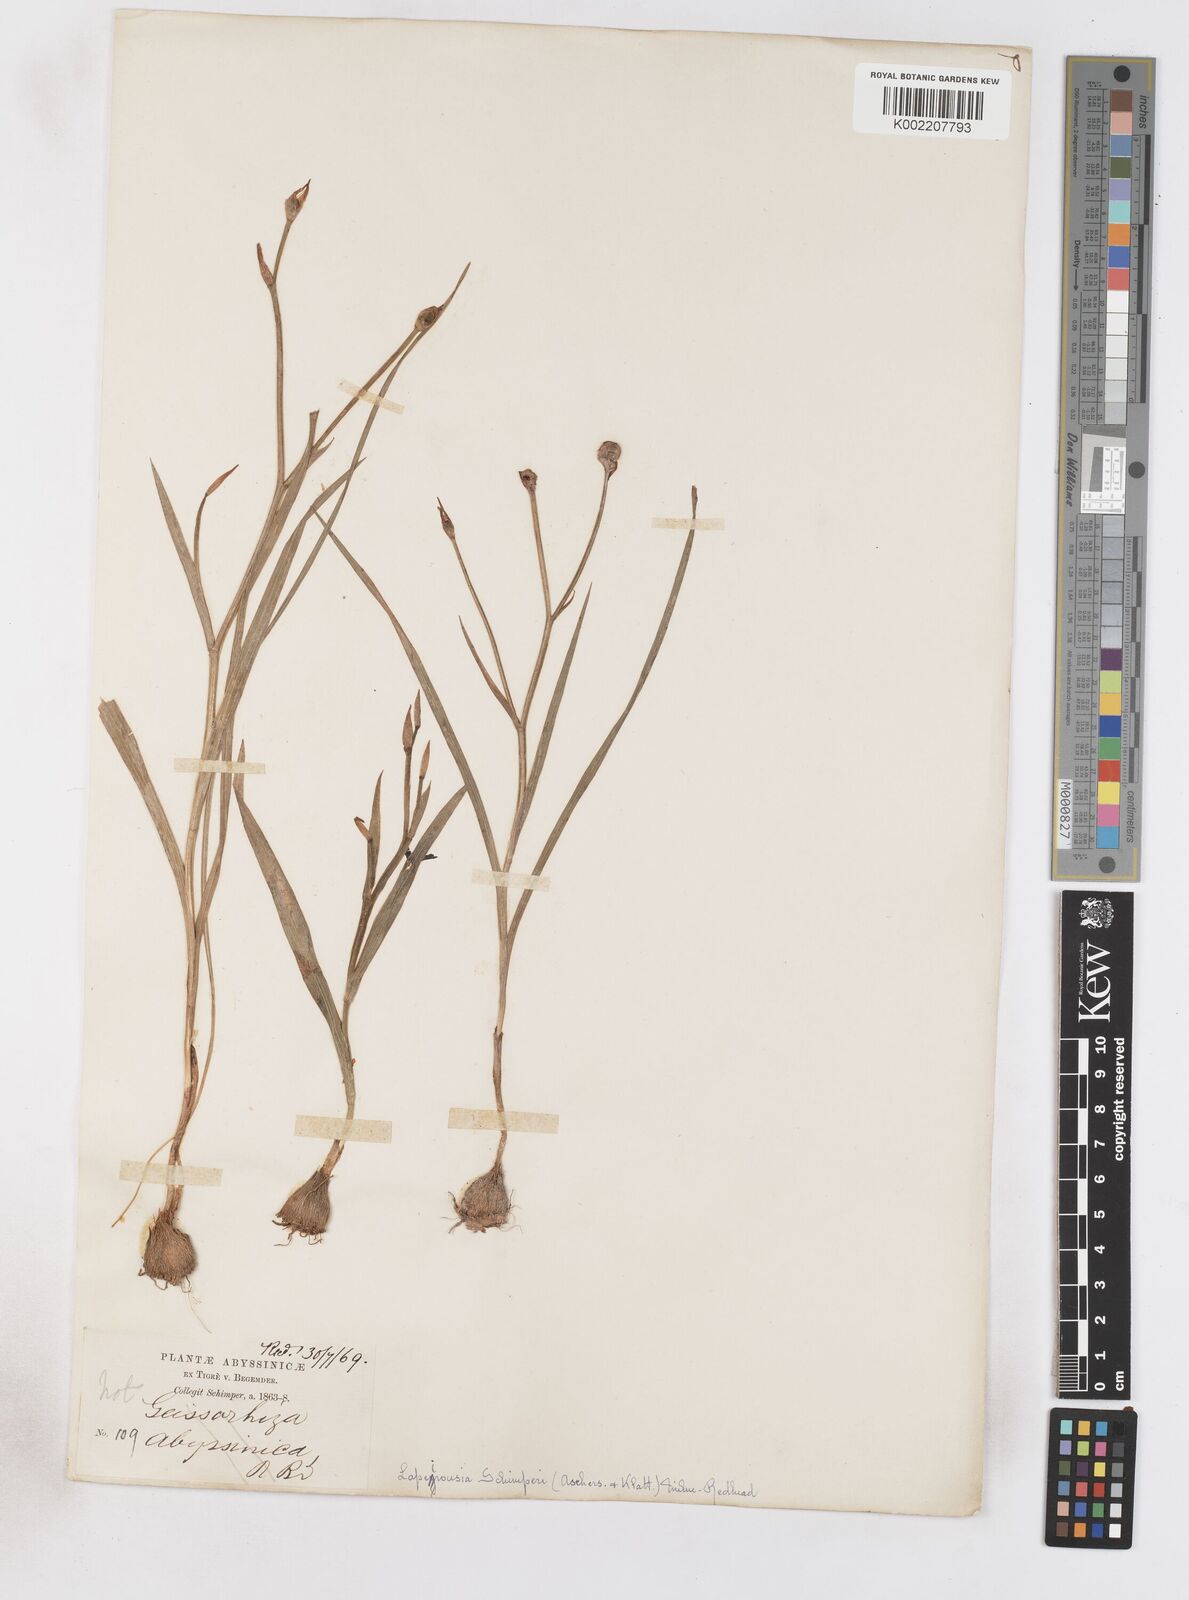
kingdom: Plantae
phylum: Tracheophyta
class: Liliopsida
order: Asparagales
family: Iridaceae
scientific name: Iridaceae
